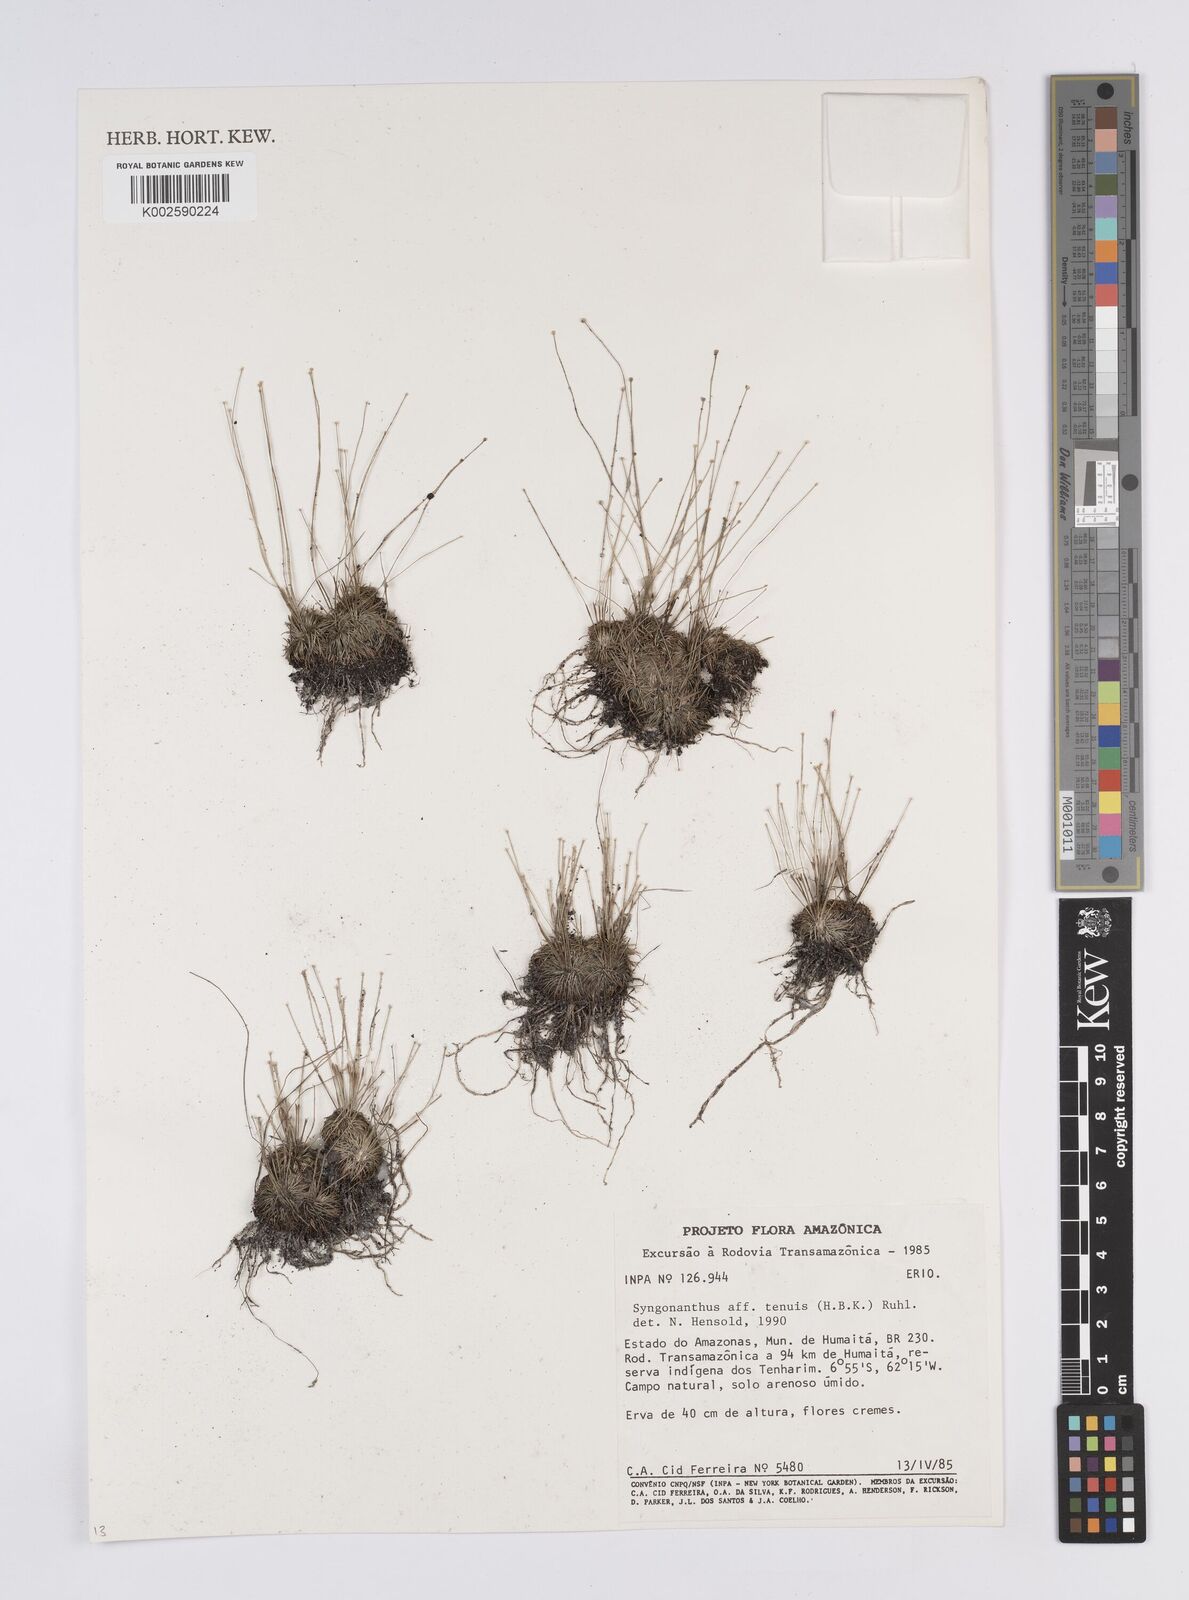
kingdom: Plantae
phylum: Tracheophyta
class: Liliopsida
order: Poales
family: Eriocaulaceae
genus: Syngonanthus
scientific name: Syngonanthus tenuis
